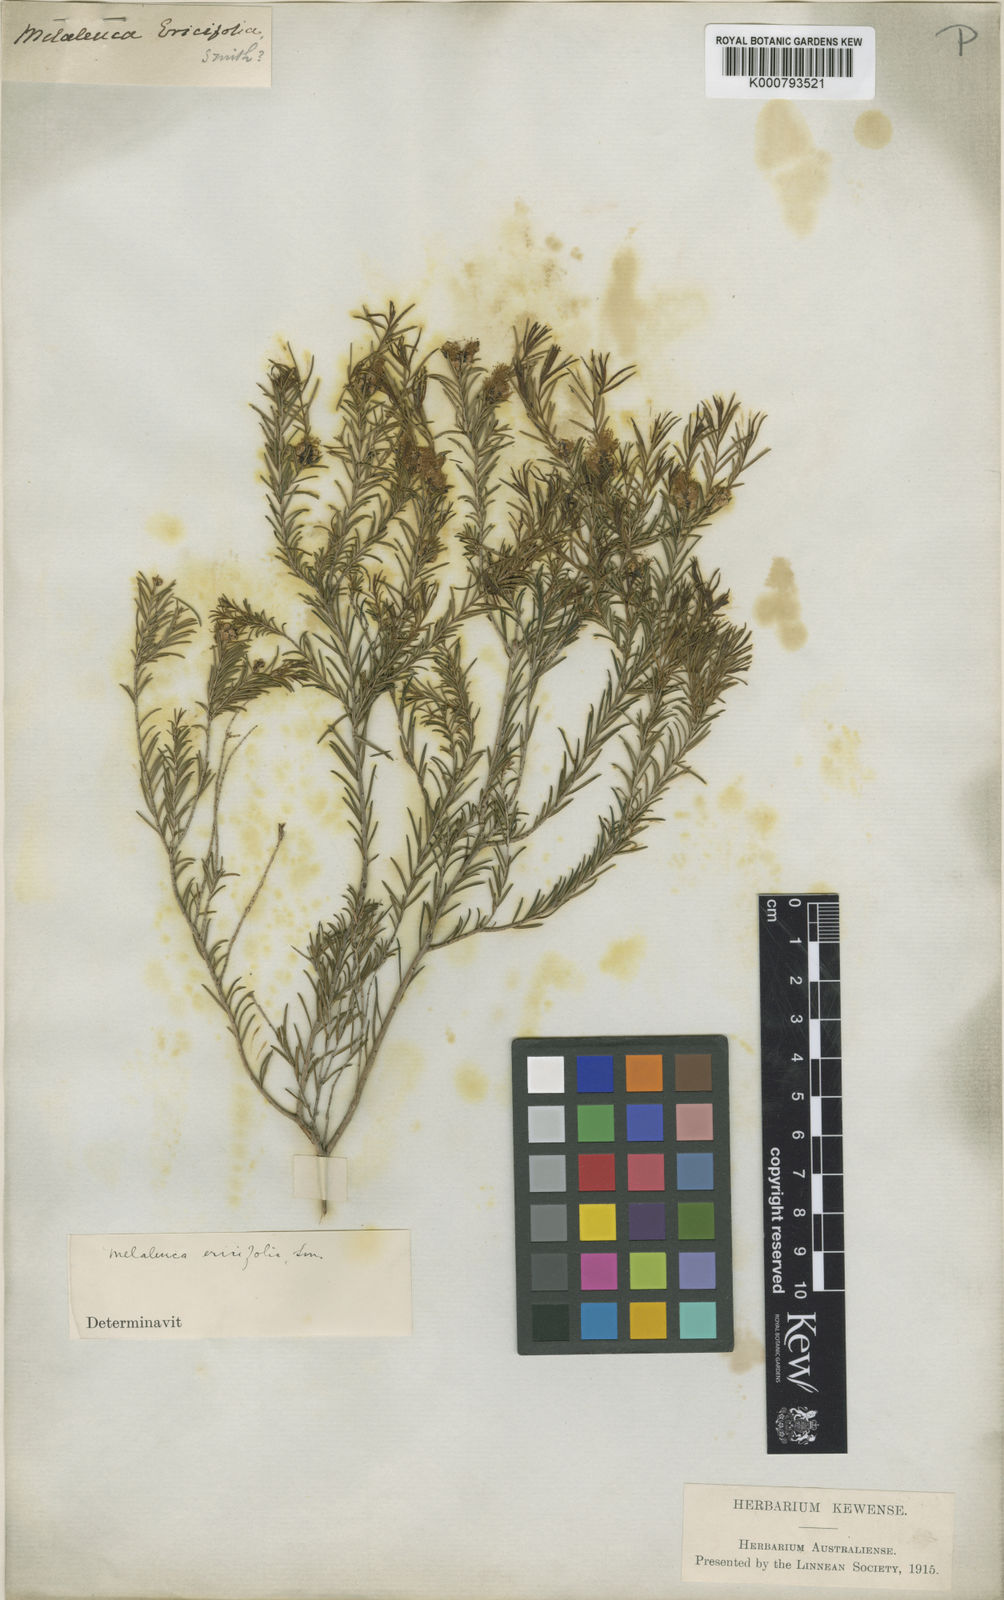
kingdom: Plantae
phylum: Tracheophyta
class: Magnoliopsida
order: Myrtales
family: Myrtaceae
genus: Melaleuca
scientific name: Melaleuca ericifolia
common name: Paperbark teatree
